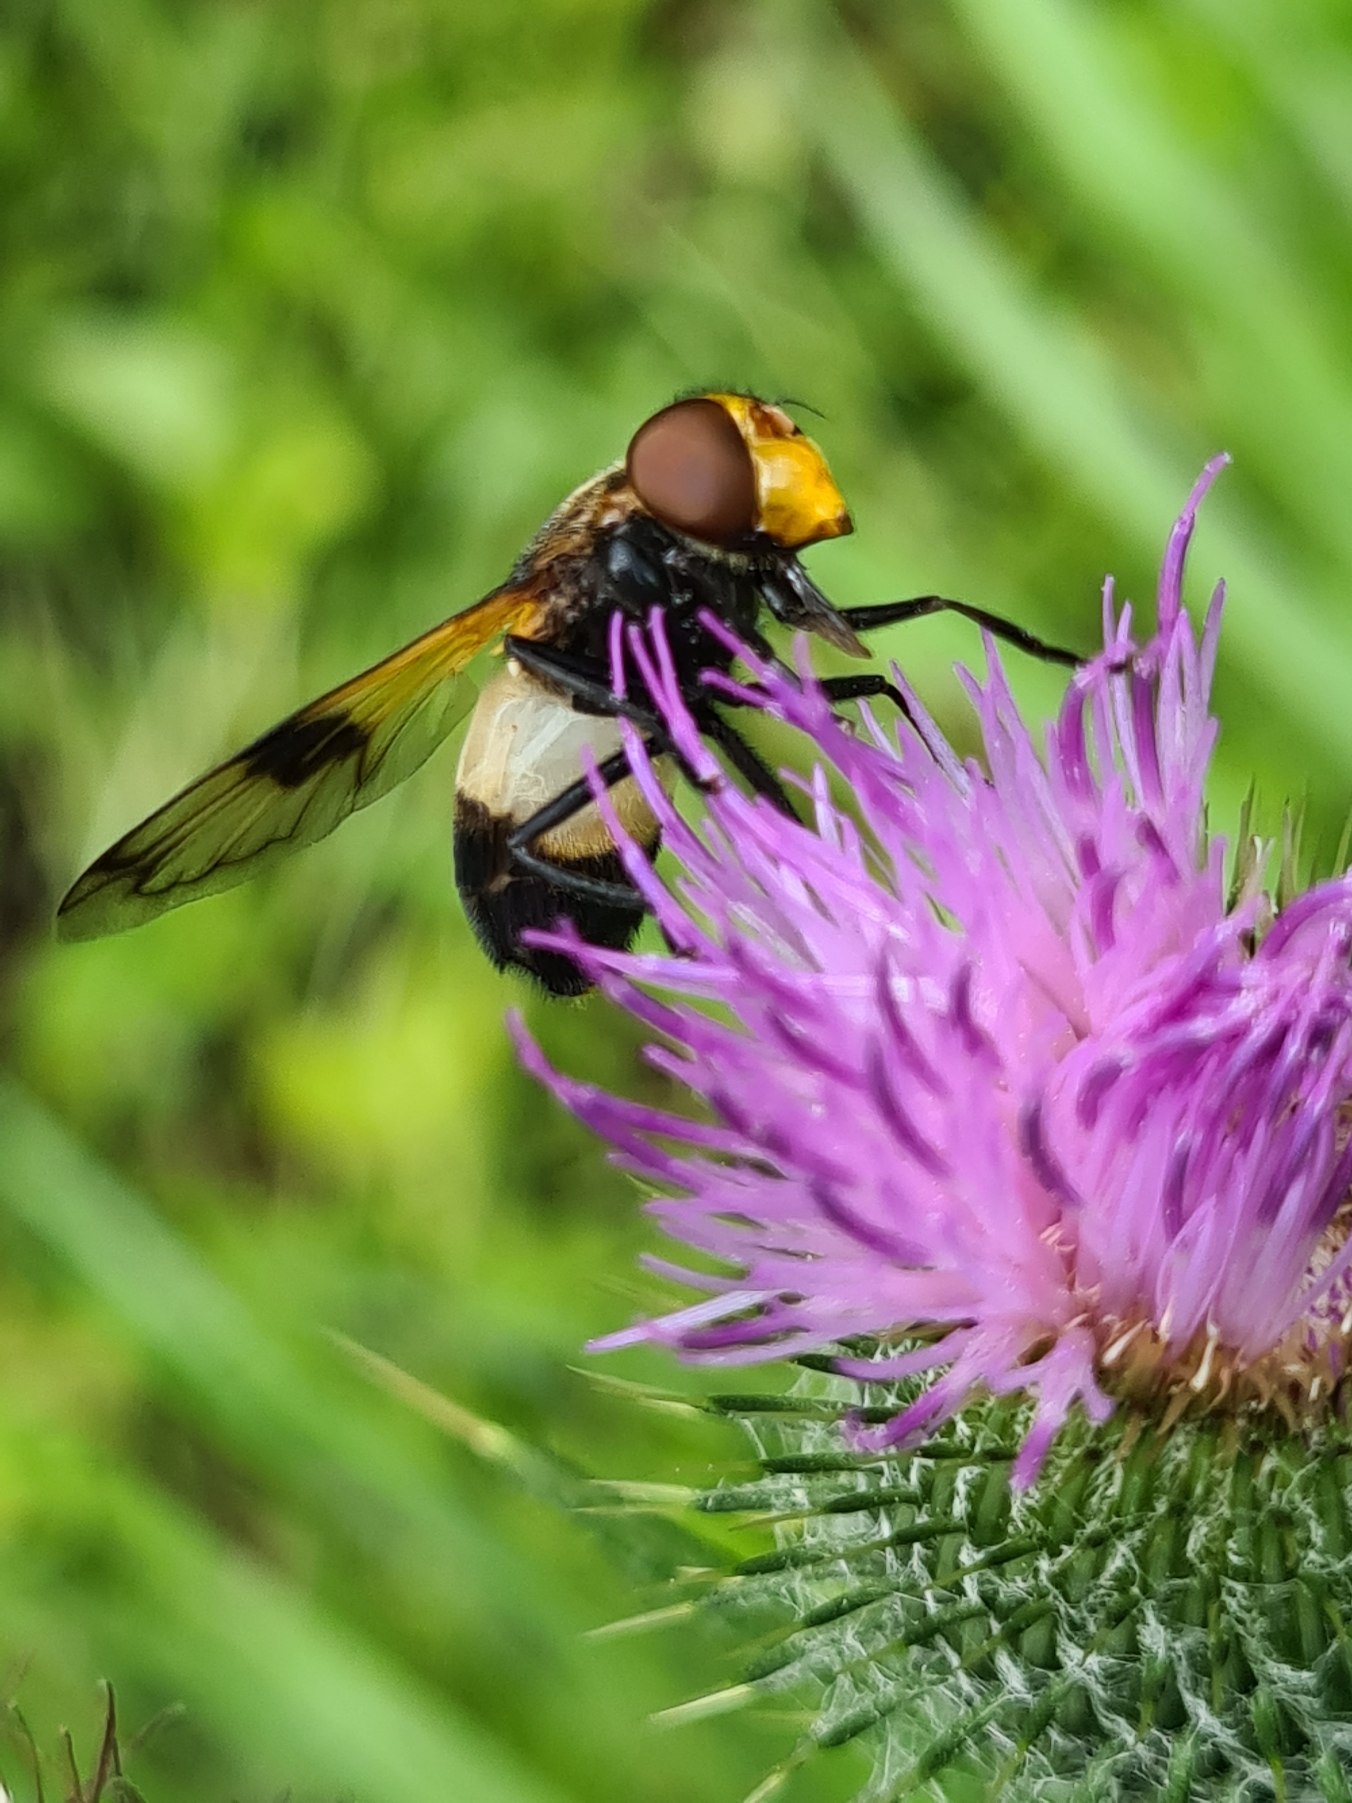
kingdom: Animalia
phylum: Arthropoda
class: Insecta
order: Diptera
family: Syrphidae
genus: Volucella
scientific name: Volucella pellucens
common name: Hvidbåndet humlesvirreflue
